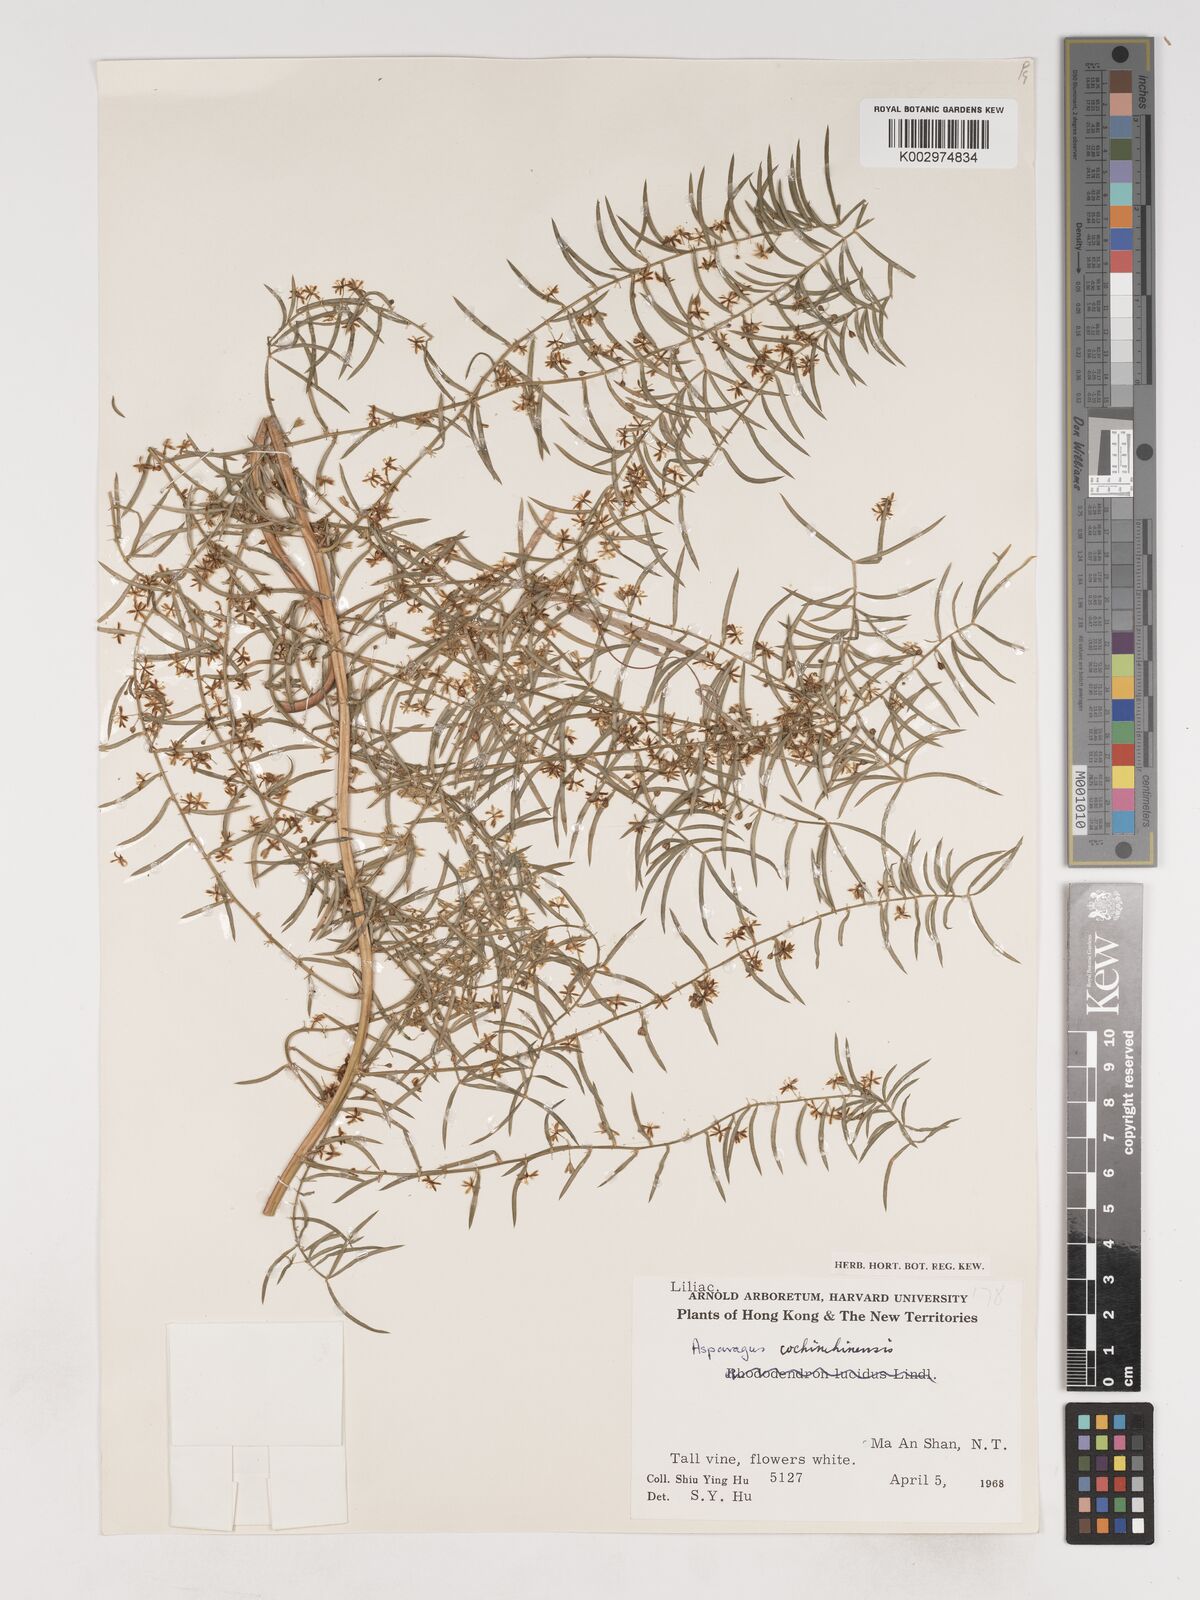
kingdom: Plantae
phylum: Tracheophyta
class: Liliopsida
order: Asparagales
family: Asparagaceae
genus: Asparagus
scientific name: Asparagus cochinchinensis
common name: Chinese asparagus
